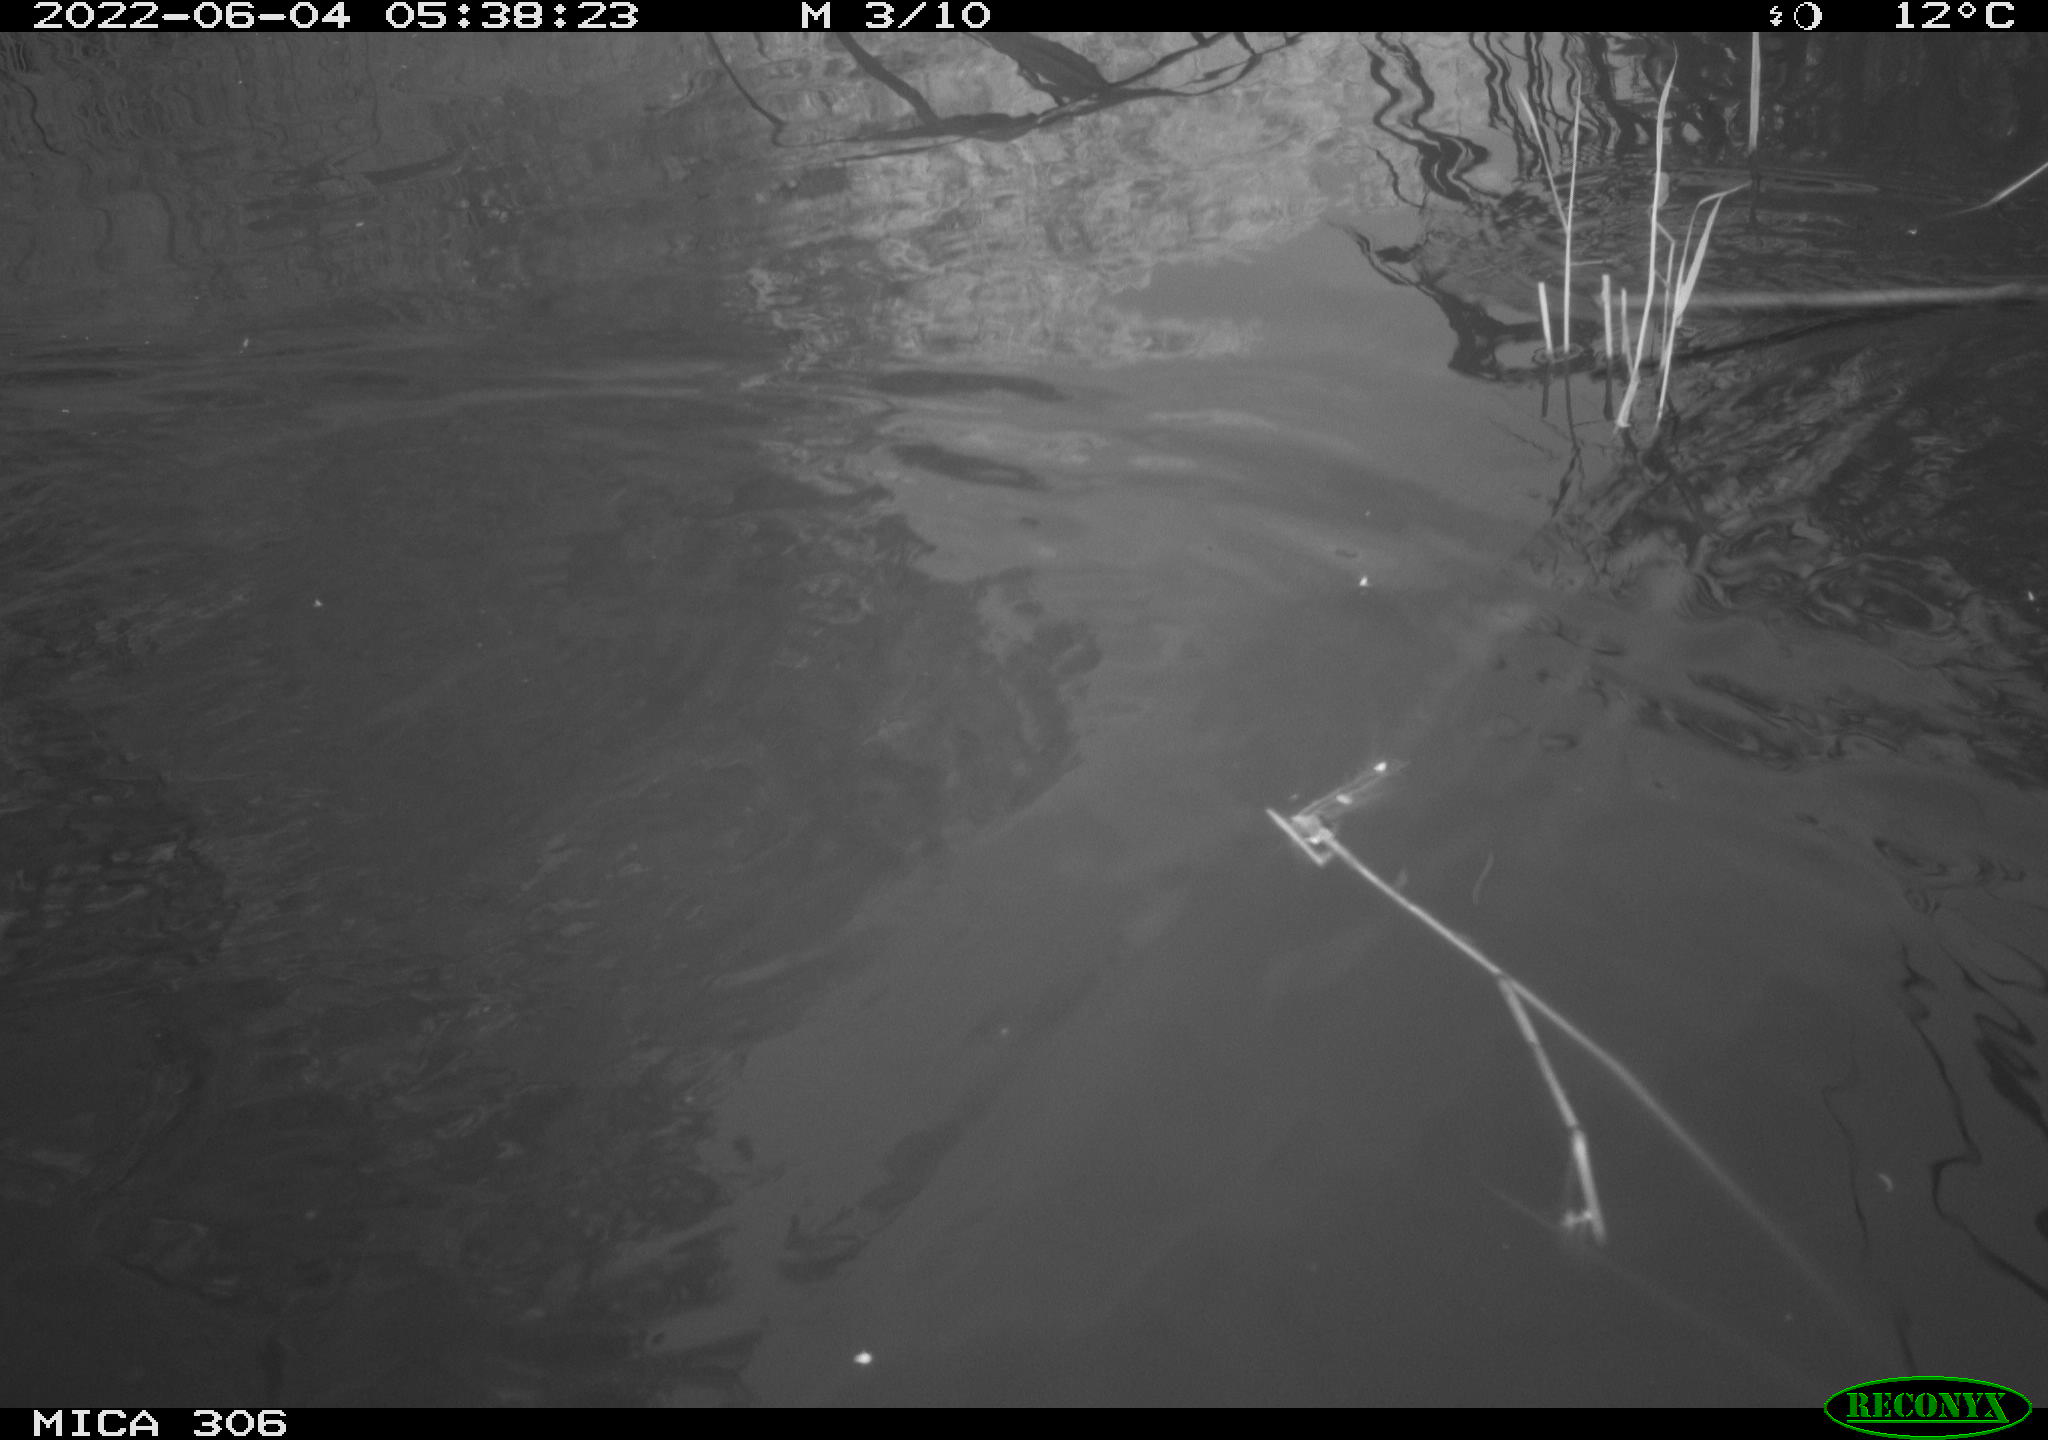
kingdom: Animalia
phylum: Chordata
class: Aves
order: Anseriformes
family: Anatidae
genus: Anas
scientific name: Anas platyrhynchos
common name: Mallard
